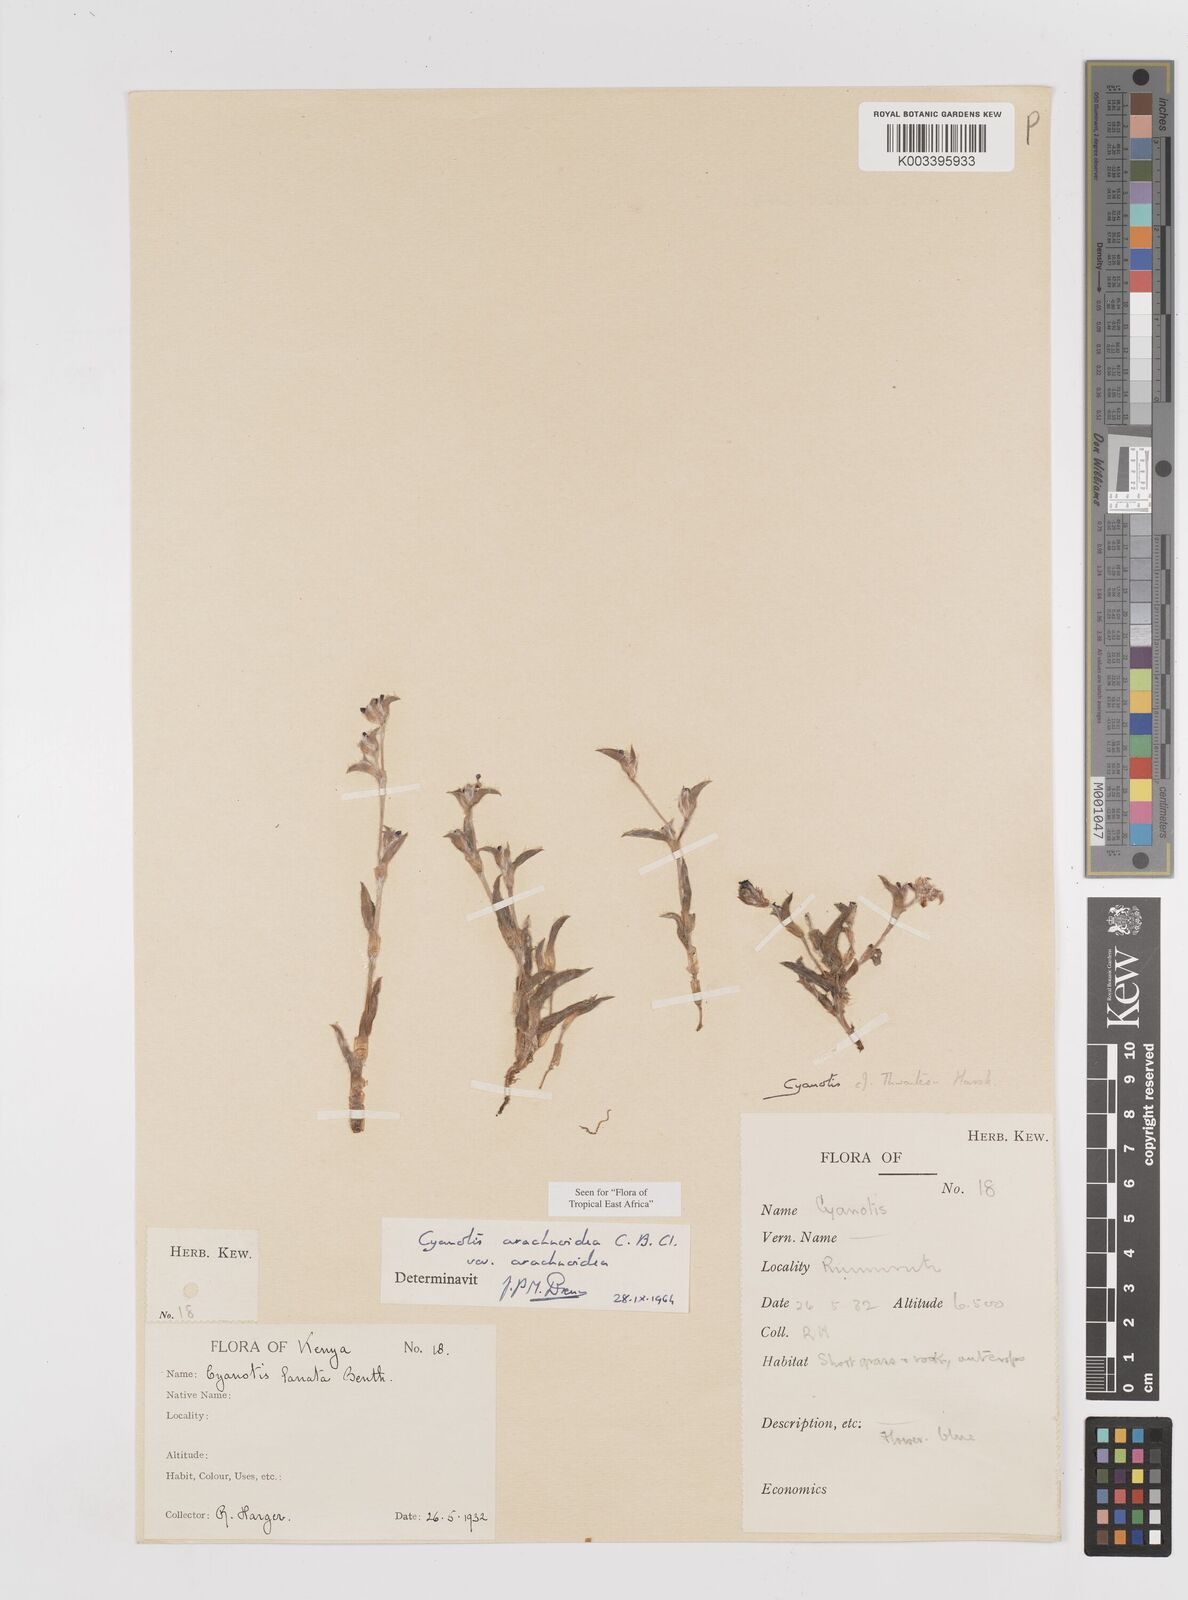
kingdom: Plantae
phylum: Tracheophyta
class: Liliopsida
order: Commelinales
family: Commelinaceae
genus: Cyanotis
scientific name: Cyanotis arachnoidea
